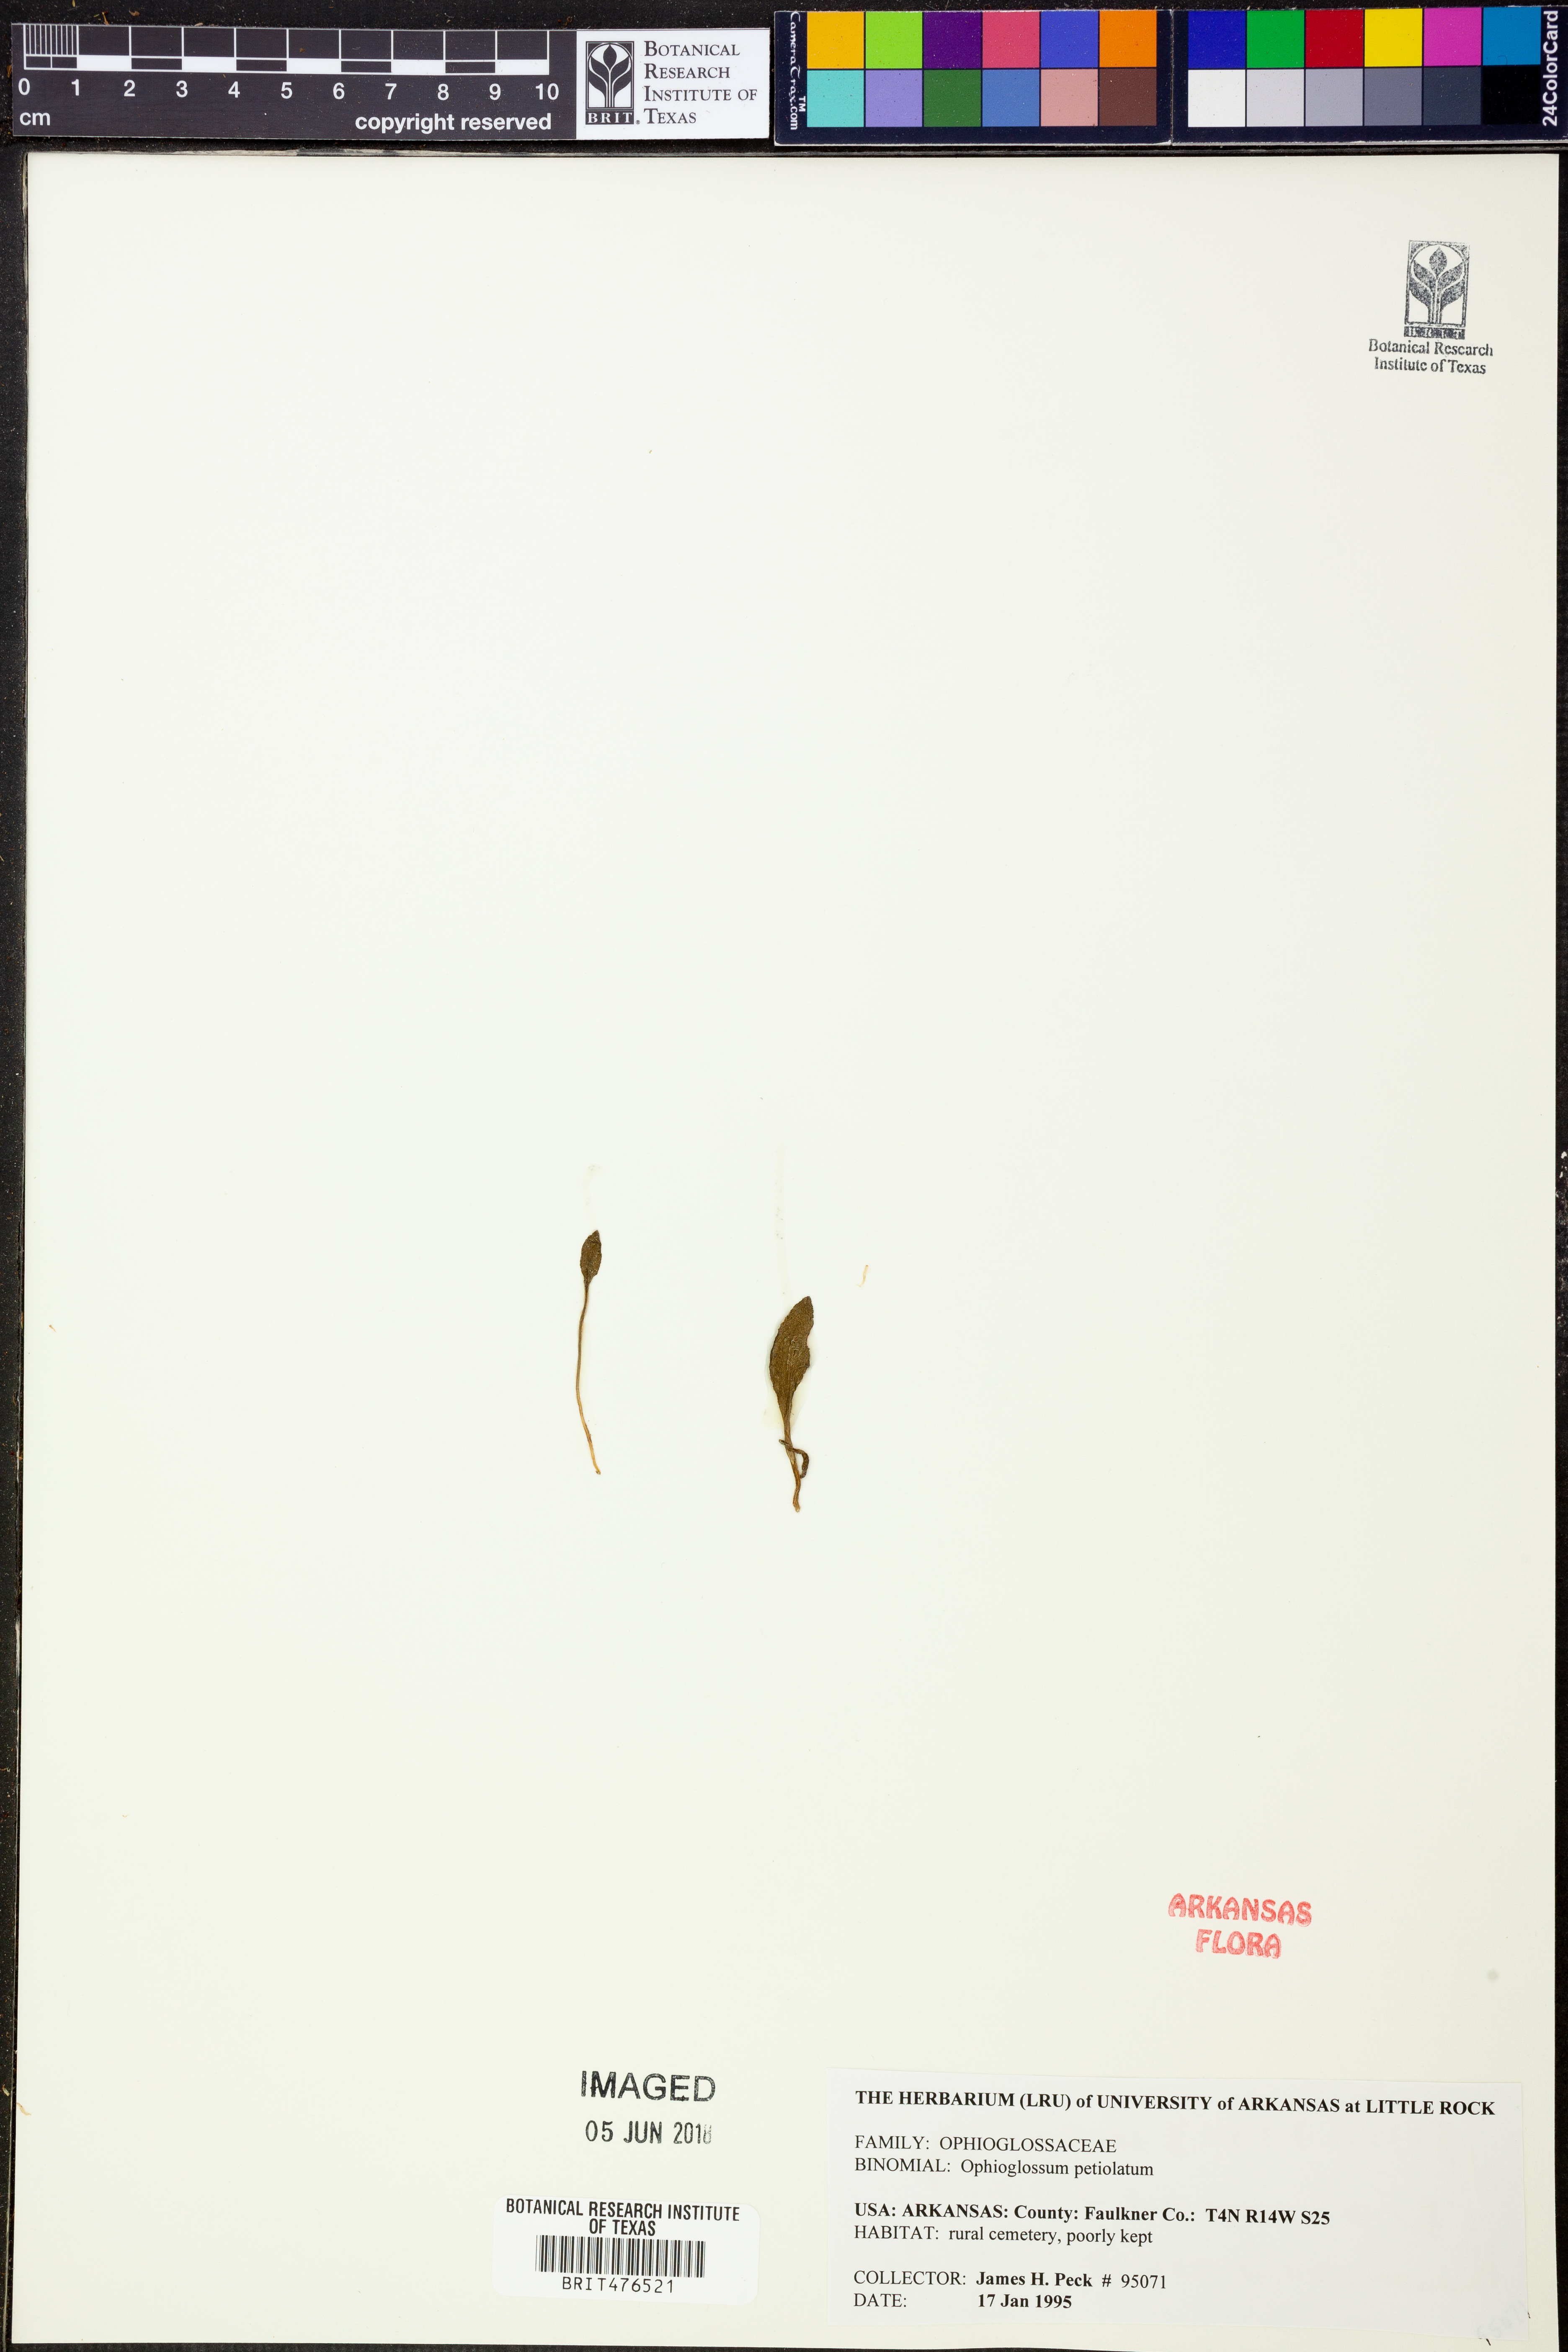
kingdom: Plantae
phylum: Tracheophyta
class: Polypodiopsida
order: Ophioglossales
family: Ophioglossaceae
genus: Ophioglossum
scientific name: Ophioglossum petiolatum
